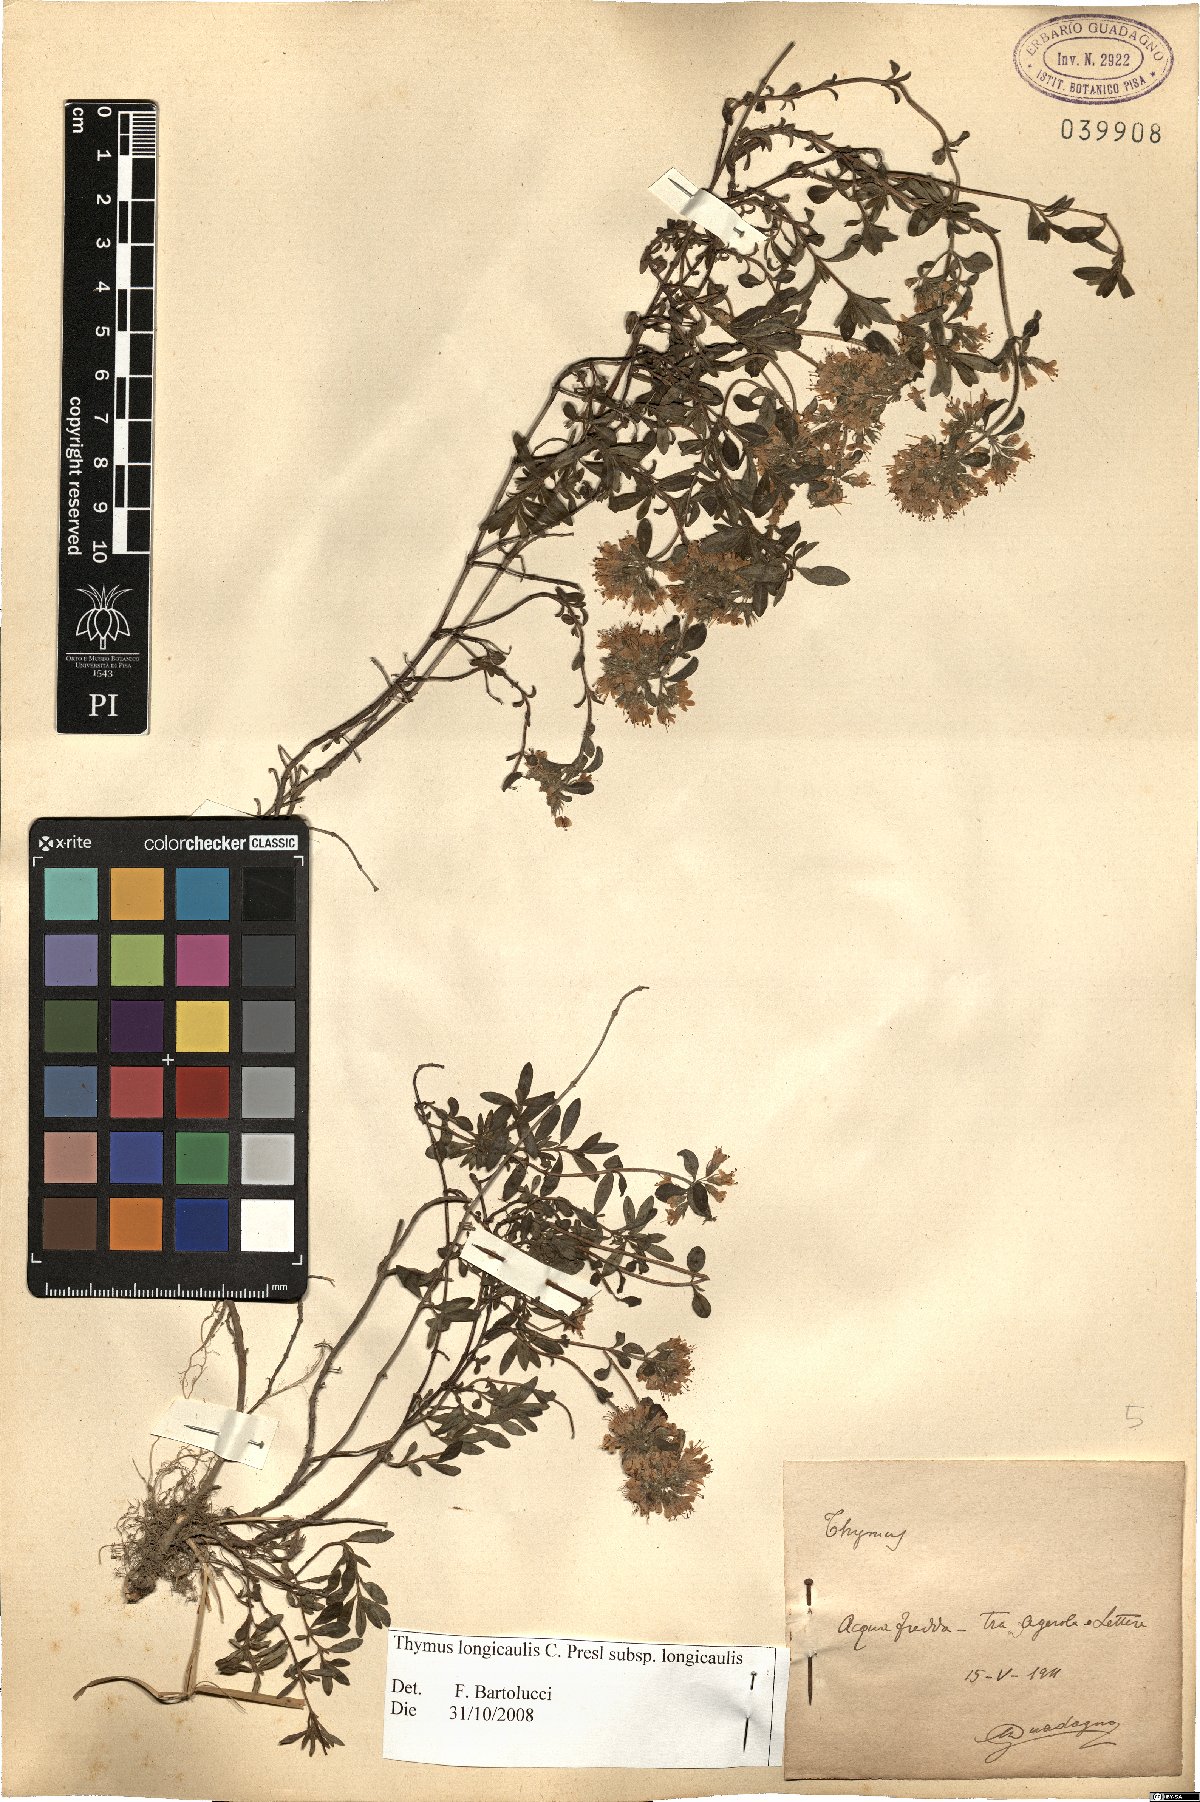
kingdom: Plantae
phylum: Tracheophyta
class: Magnoliopsida
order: Lamiales
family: Lamiaceae
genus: Thymus
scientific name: Thymus longicaulis
